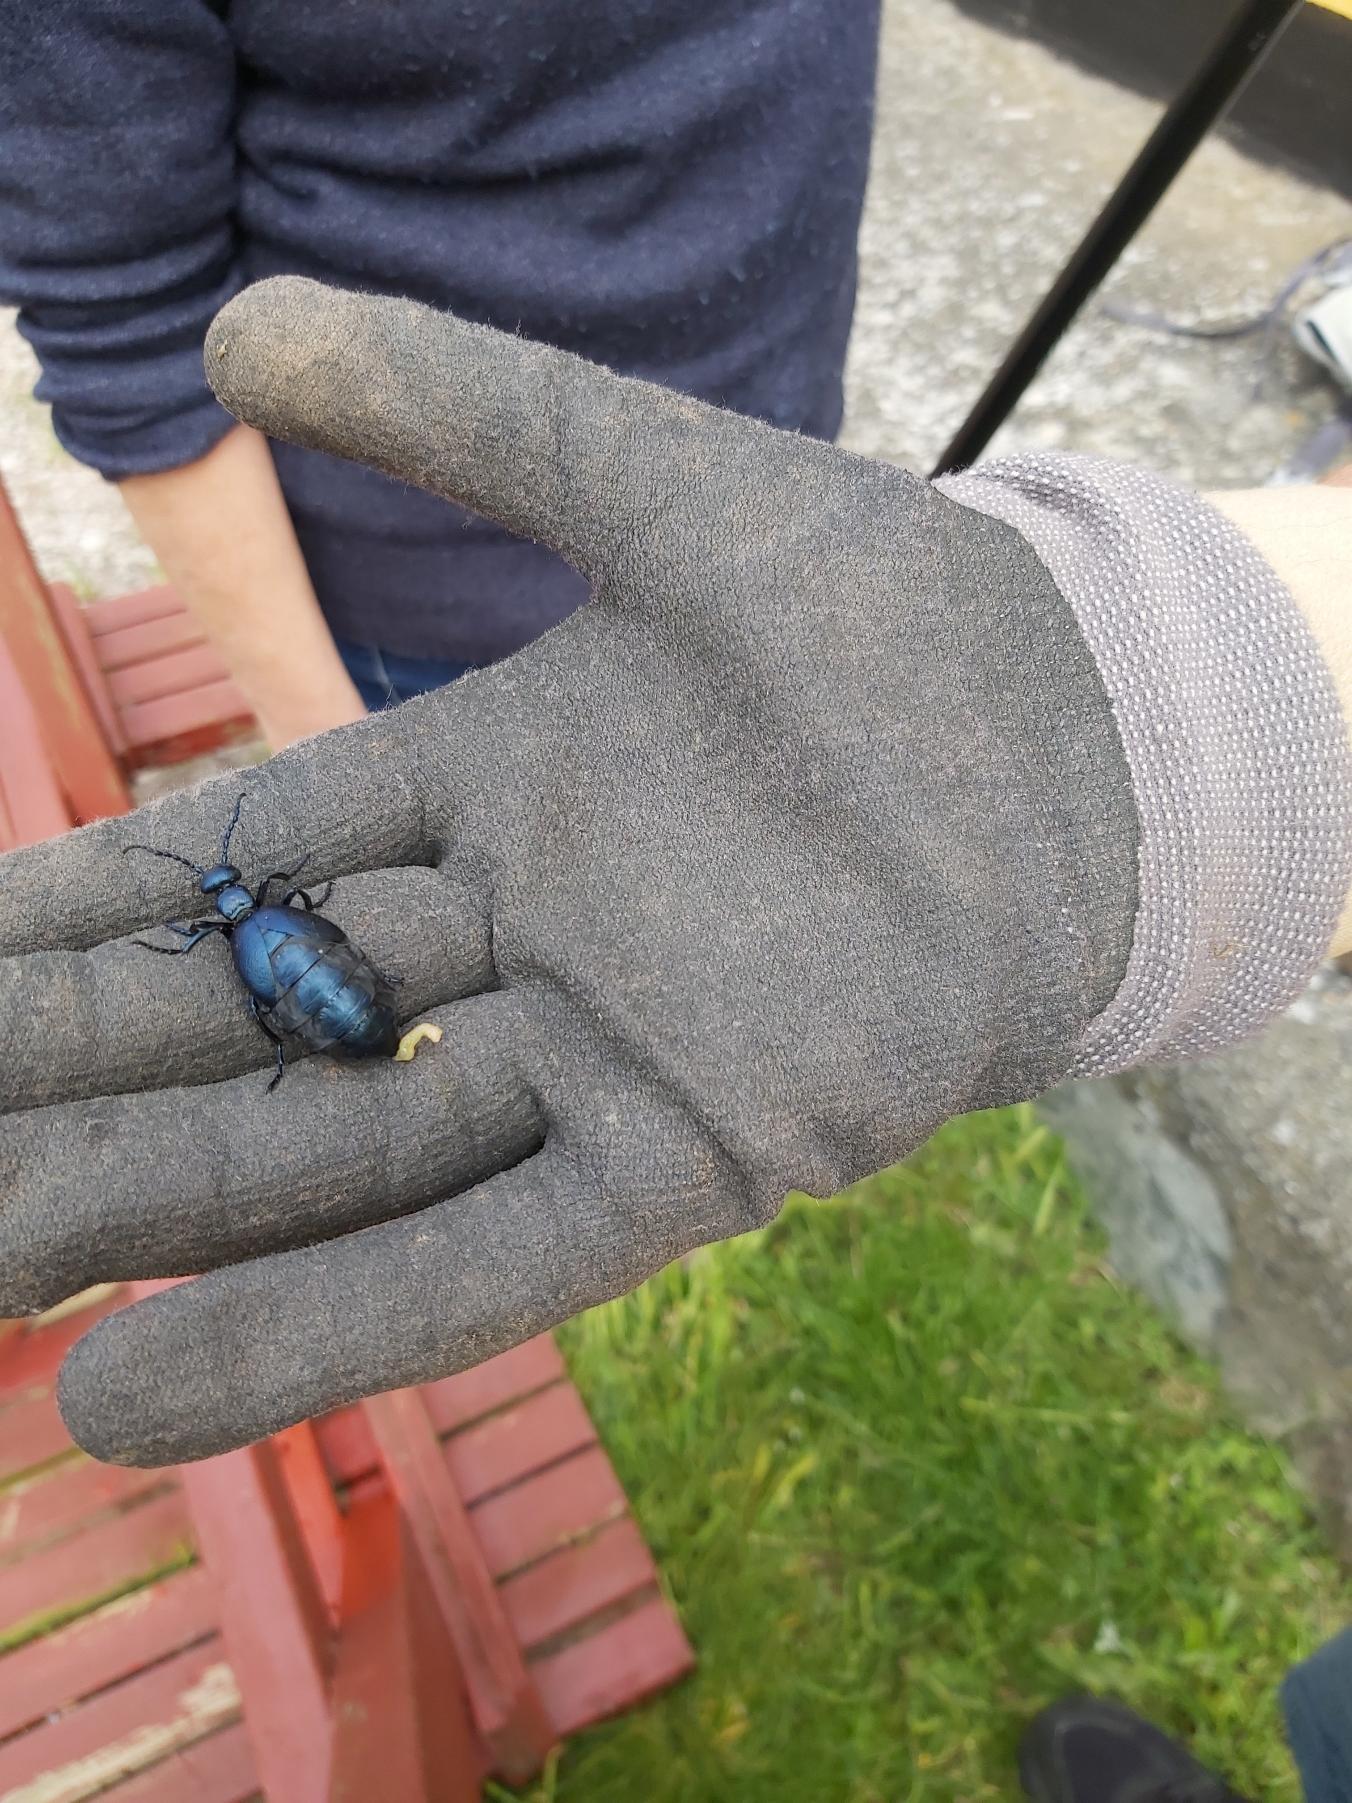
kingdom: Animalia
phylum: Arthropoda
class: Insecta
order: Coleoptera
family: Meloidae
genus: Meloe
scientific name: Meloe violaceus
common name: Blå oliebille
